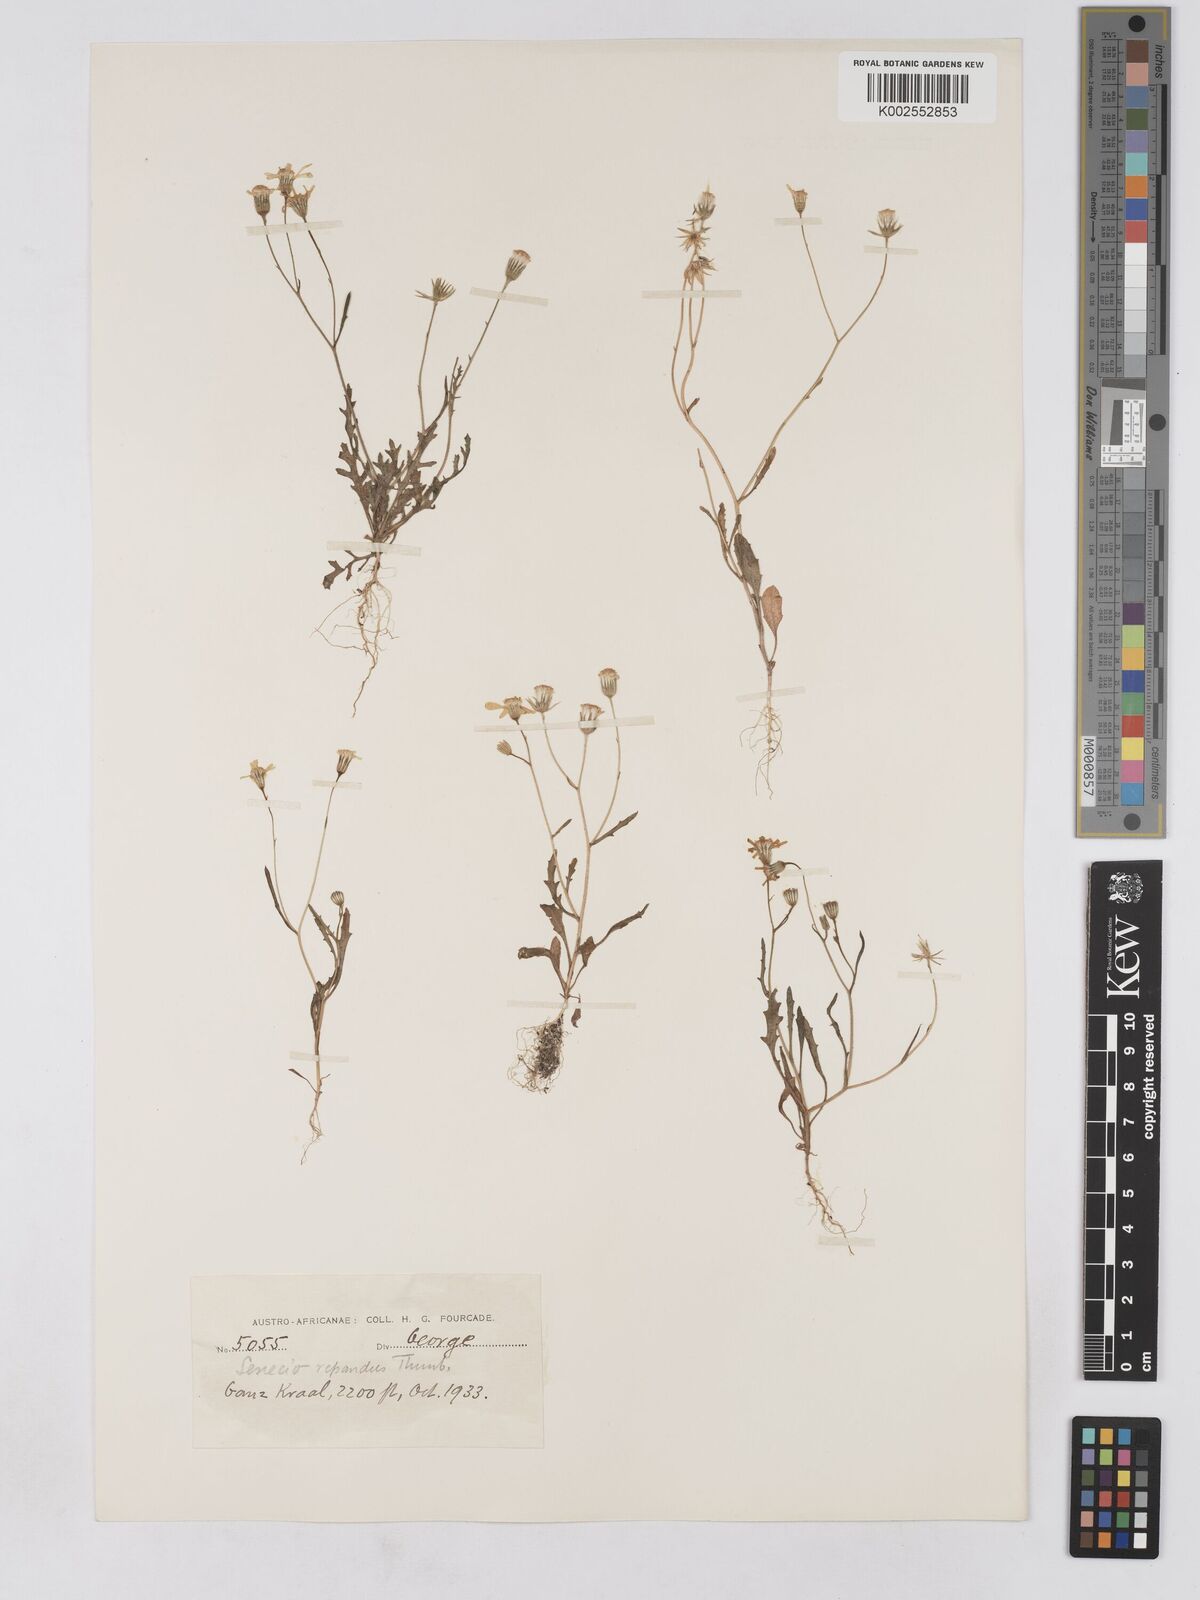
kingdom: Plantae
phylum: Tracheophyta
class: Magnoliopsida
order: Asterales
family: Asteraceae
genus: Senecio
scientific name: Senecio repandus
